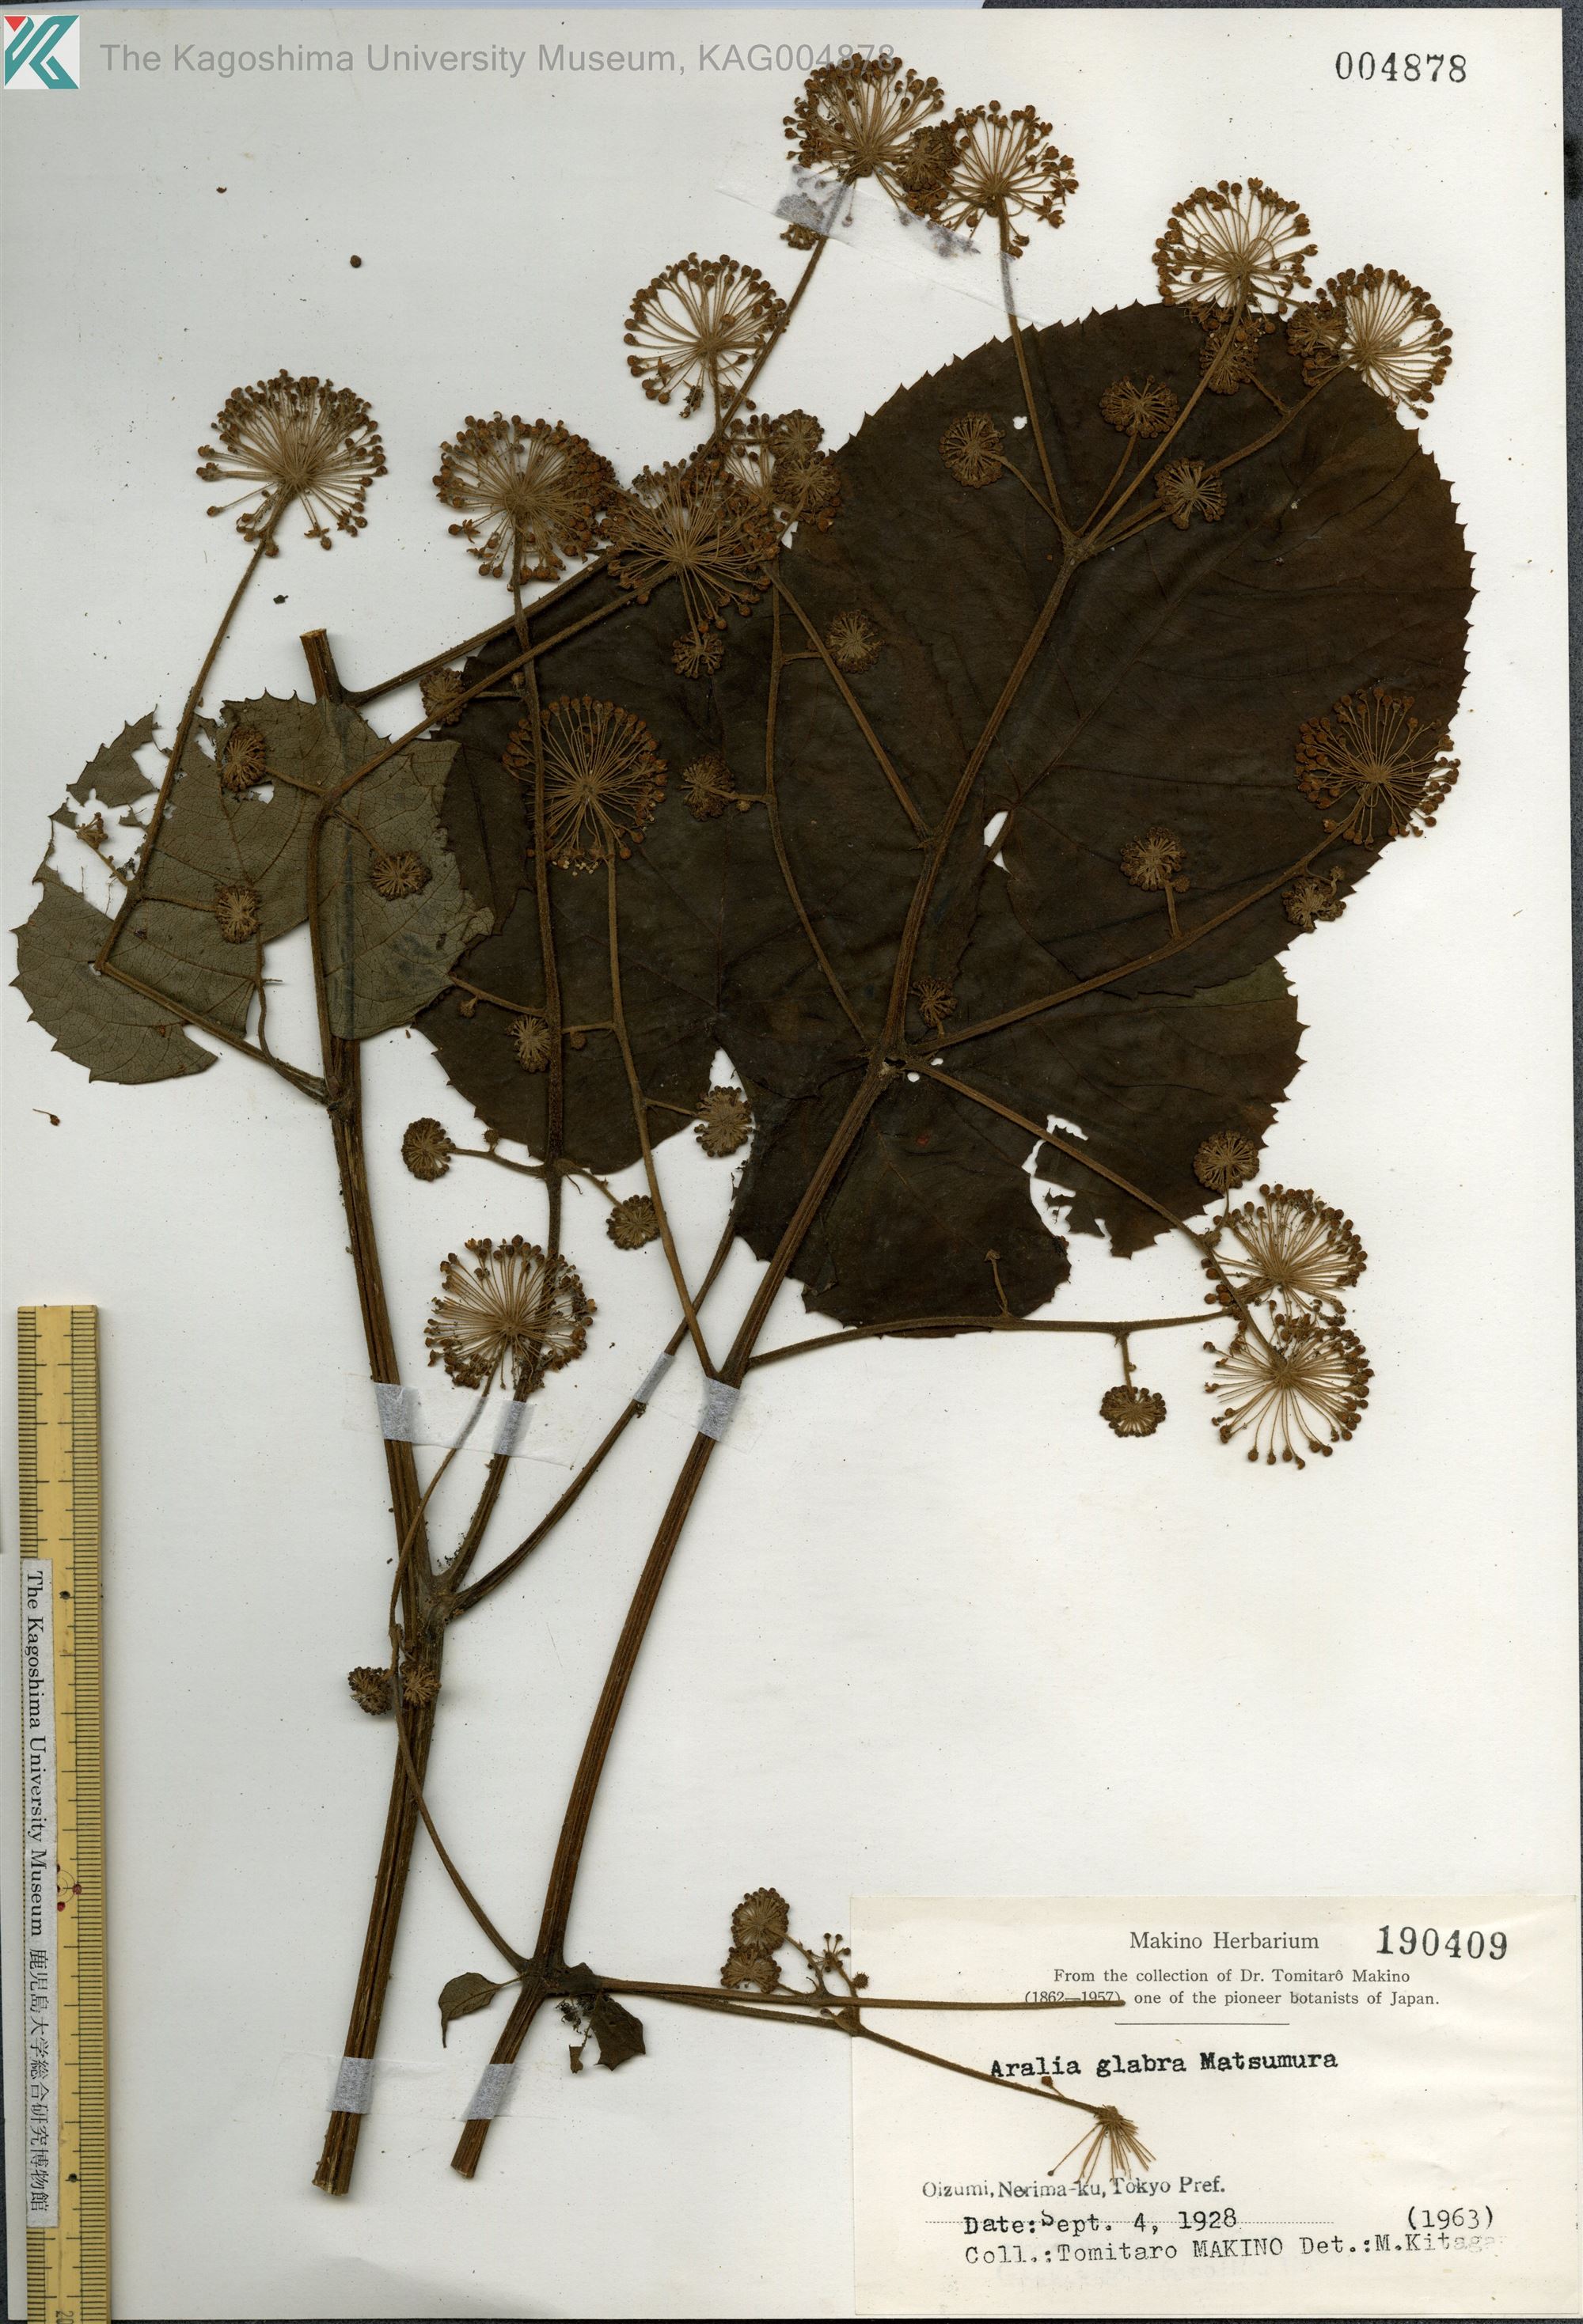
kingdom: Plantae
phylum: Tracheophyta
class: Magnoliopsida
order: Apiales
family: Araliaceae
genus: Aralia
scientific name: Aralia cordata
